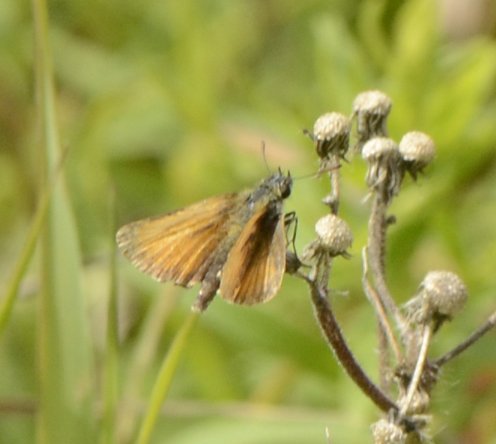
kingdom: Animalia
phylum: Arthropoda
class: Insecta
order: Lepidoptera
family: Hesperiidae
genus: Thymelicus
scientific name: Thymelicus lineola
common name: European Skipper
